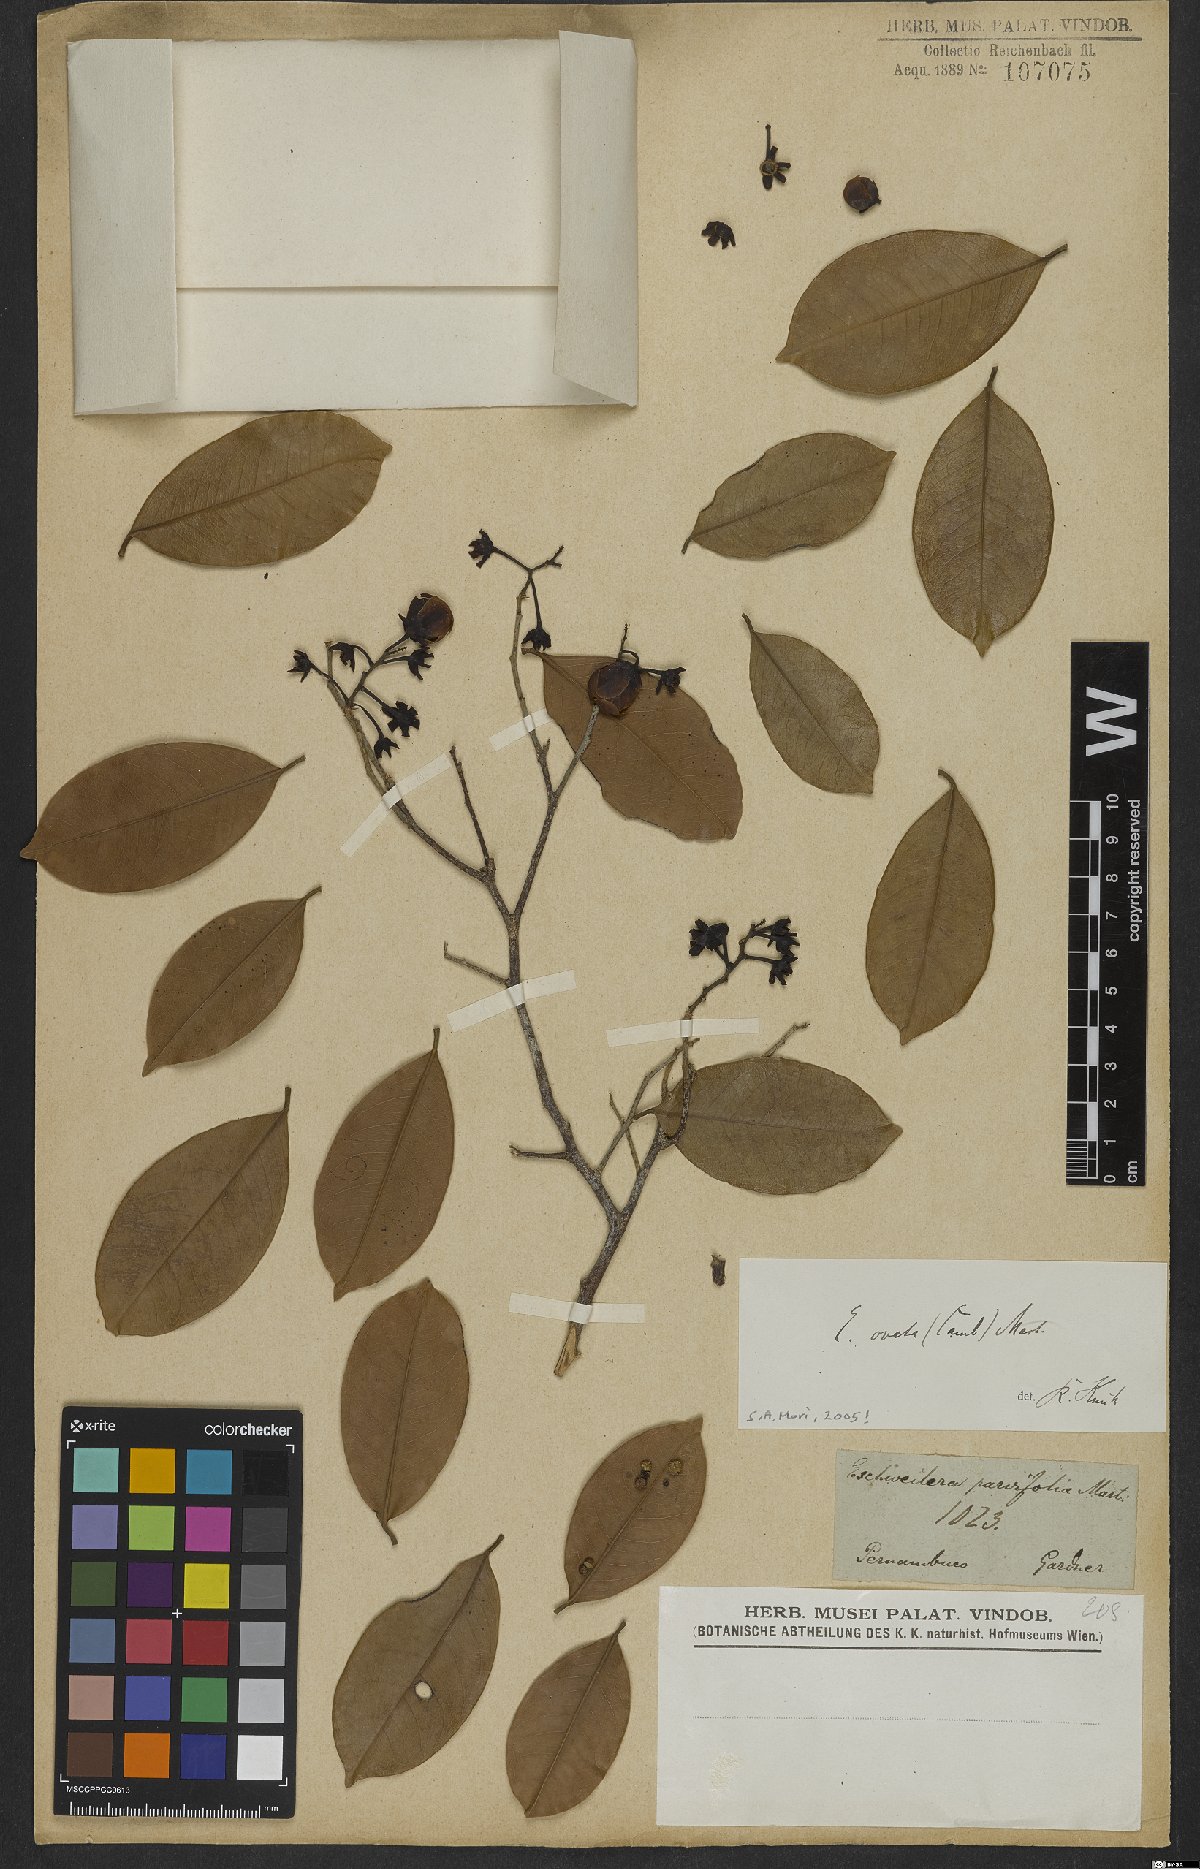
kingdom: Plantae
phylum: Tracheophyta
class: Magnoliopsida
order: Ericales
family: Lecythidaceae
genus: Eschweilera
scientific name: Eschweilera ovata
